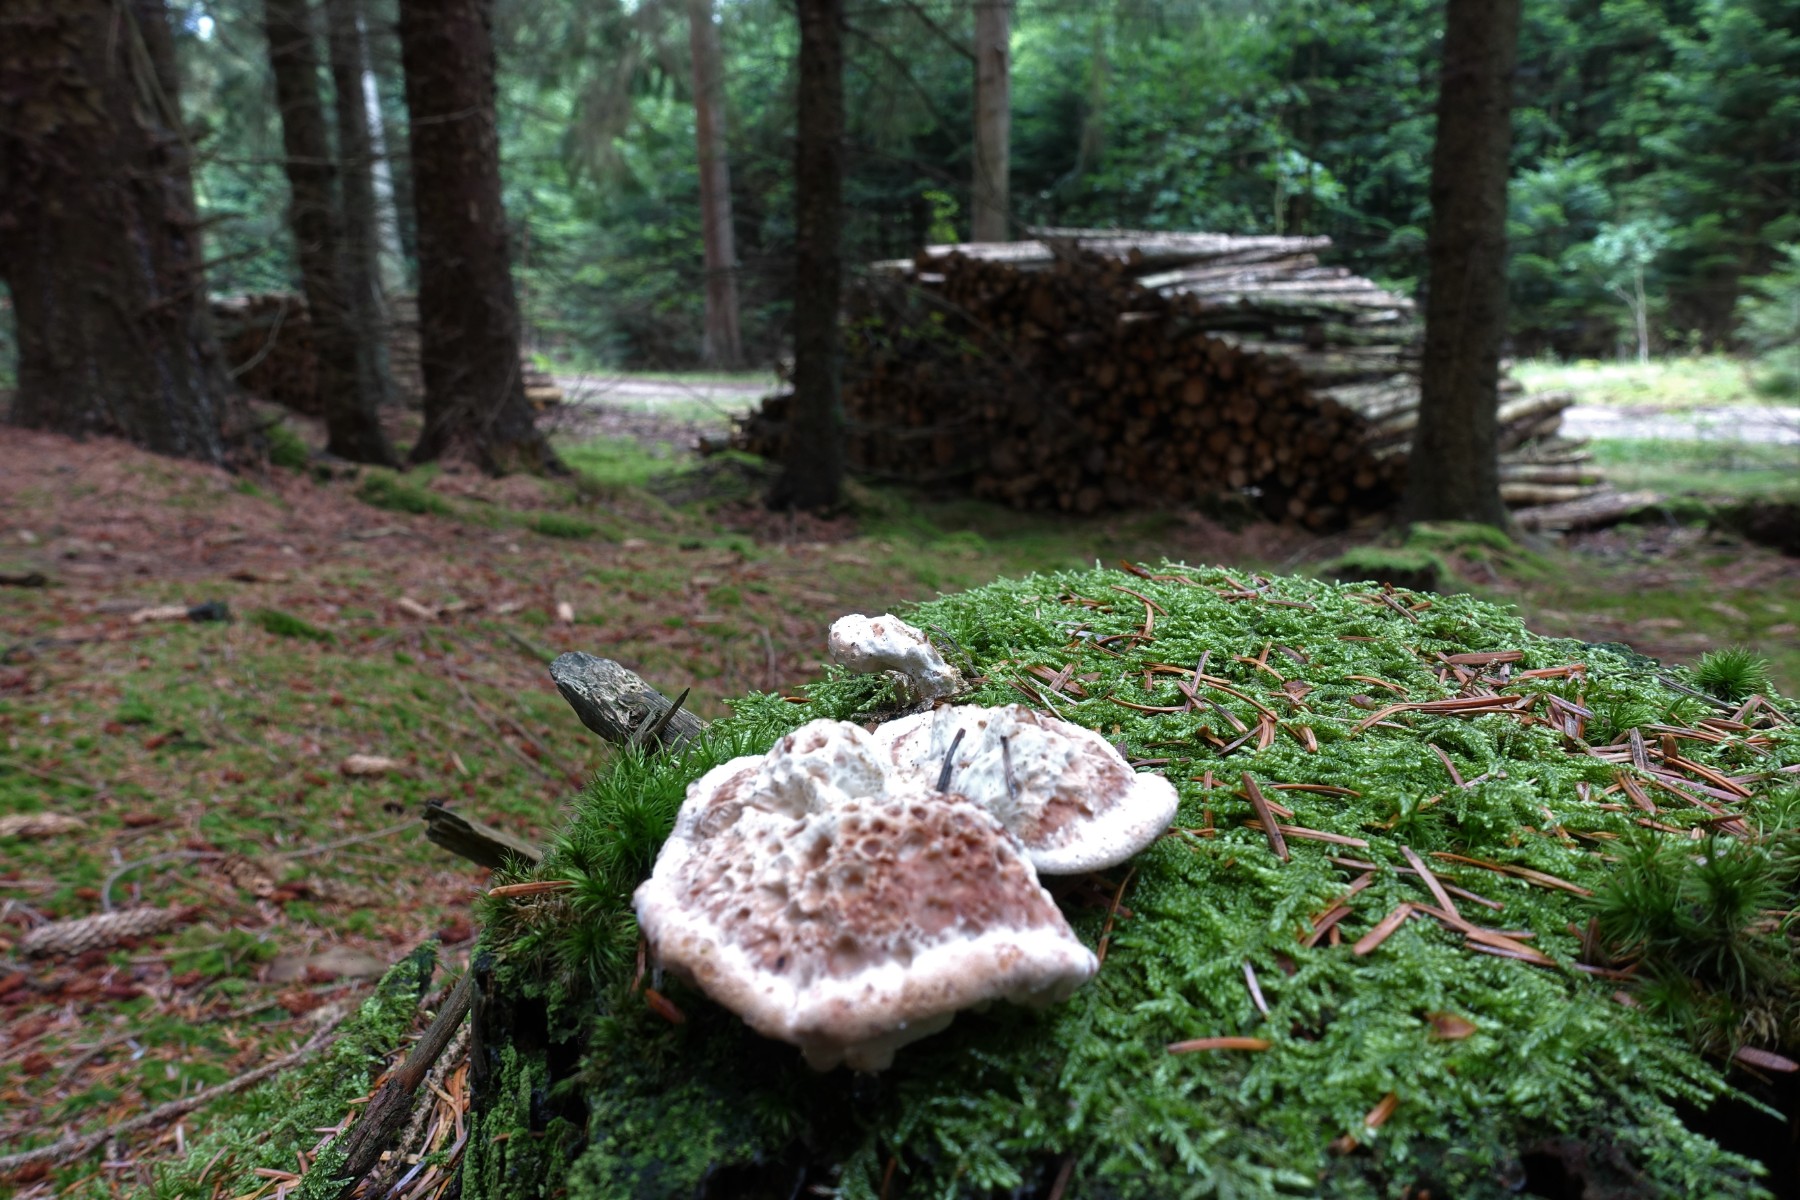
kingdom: Fungi
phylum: Basidiomycota
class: Agaricomycetes
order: Polyporales
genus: Calcipostia
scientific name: Calcipostia guttulata
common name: dråbe-kødporesvamp
